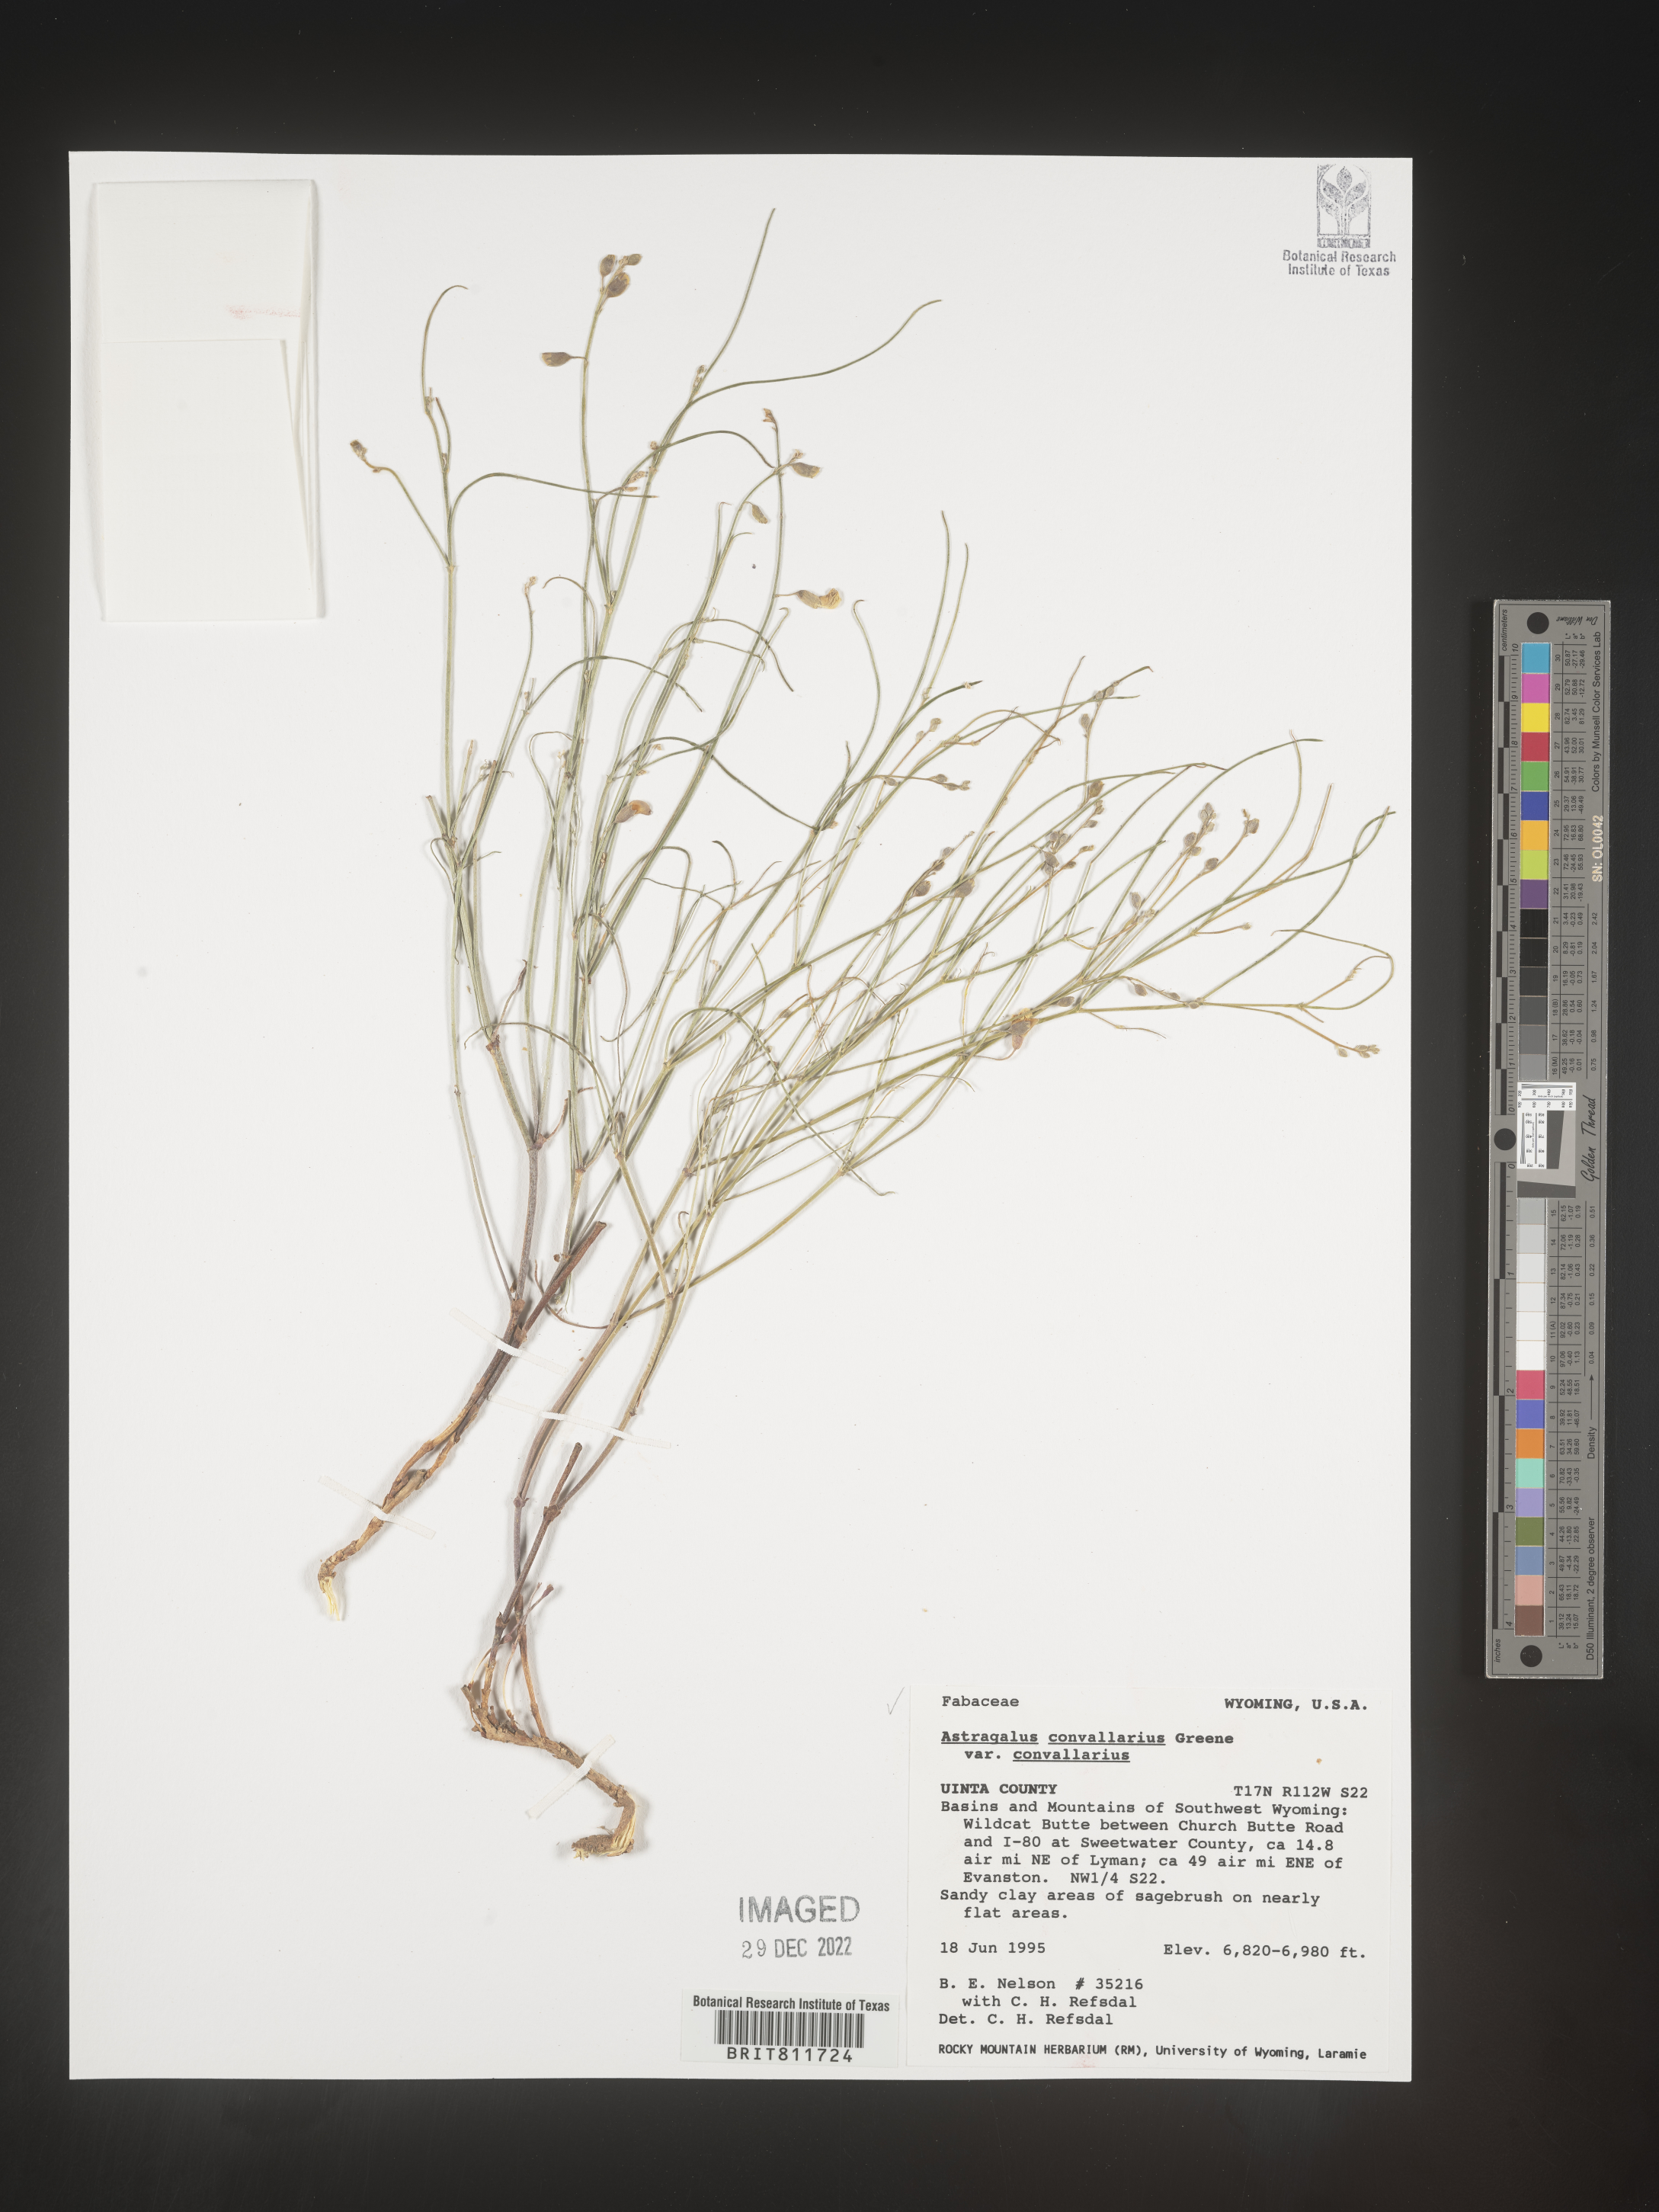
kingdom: Plantae
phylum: Tracheophyta
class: Magnoliopsida
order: Fabales
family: Fabaceae
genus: Astragalus
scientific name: Astragalus convallarius
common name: Lesser rushy milk-vetch
